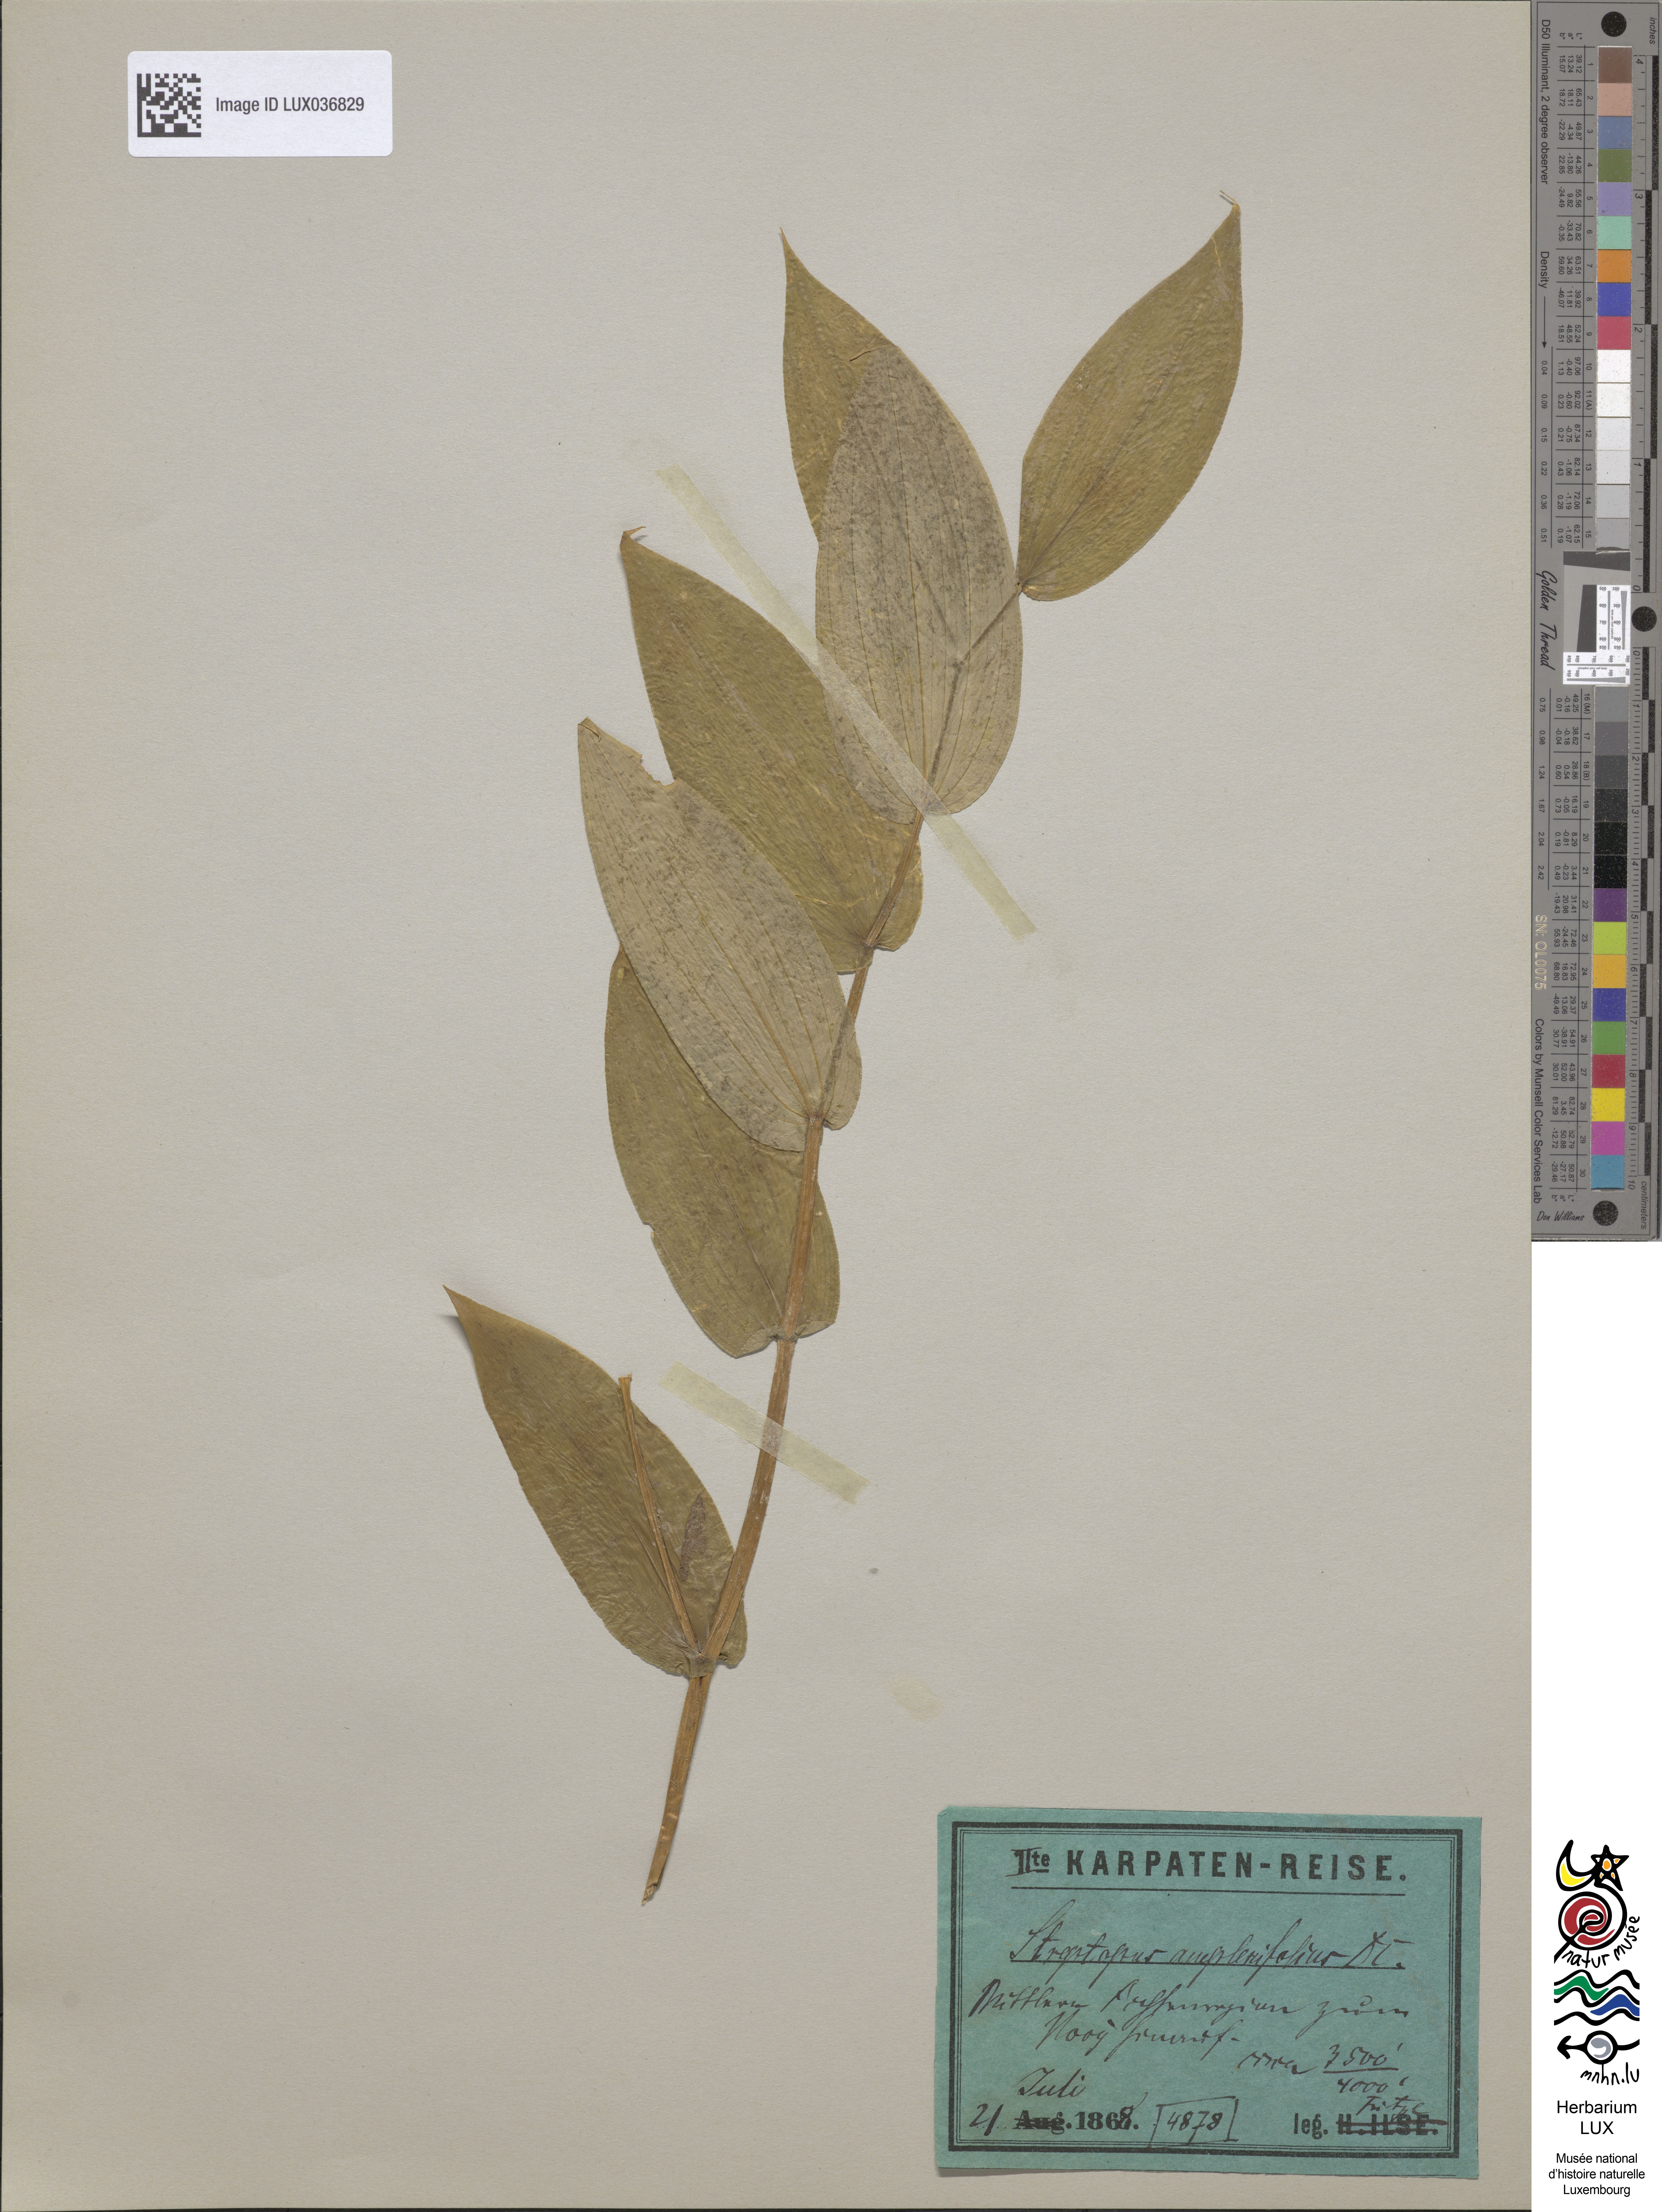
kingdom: Plantae
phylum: Tracheophyta
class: Liliopsida
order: Liliales
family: Liliaceae
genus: Streptopus
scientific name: Streptopus amplexifolius
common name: Clasp twisted stalk
